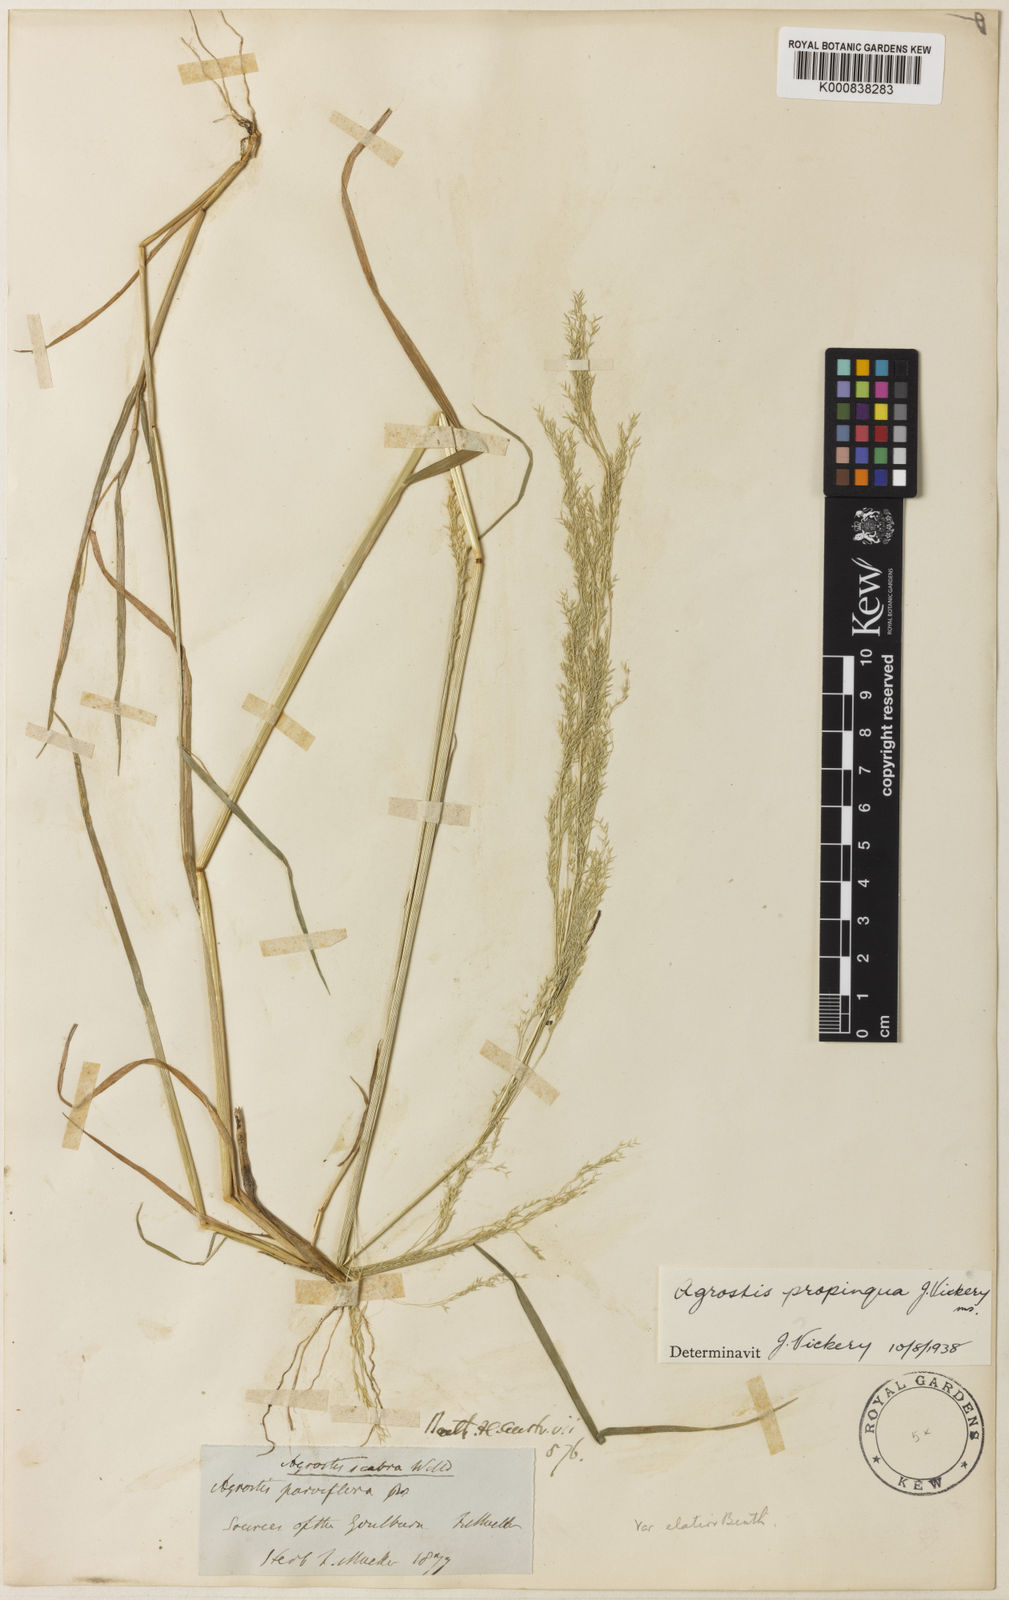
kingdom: Plantae
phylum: Tracheophyta
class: Liliopsida
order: Poales
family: Poaceae
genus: Agrostis
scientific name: Agrostis
